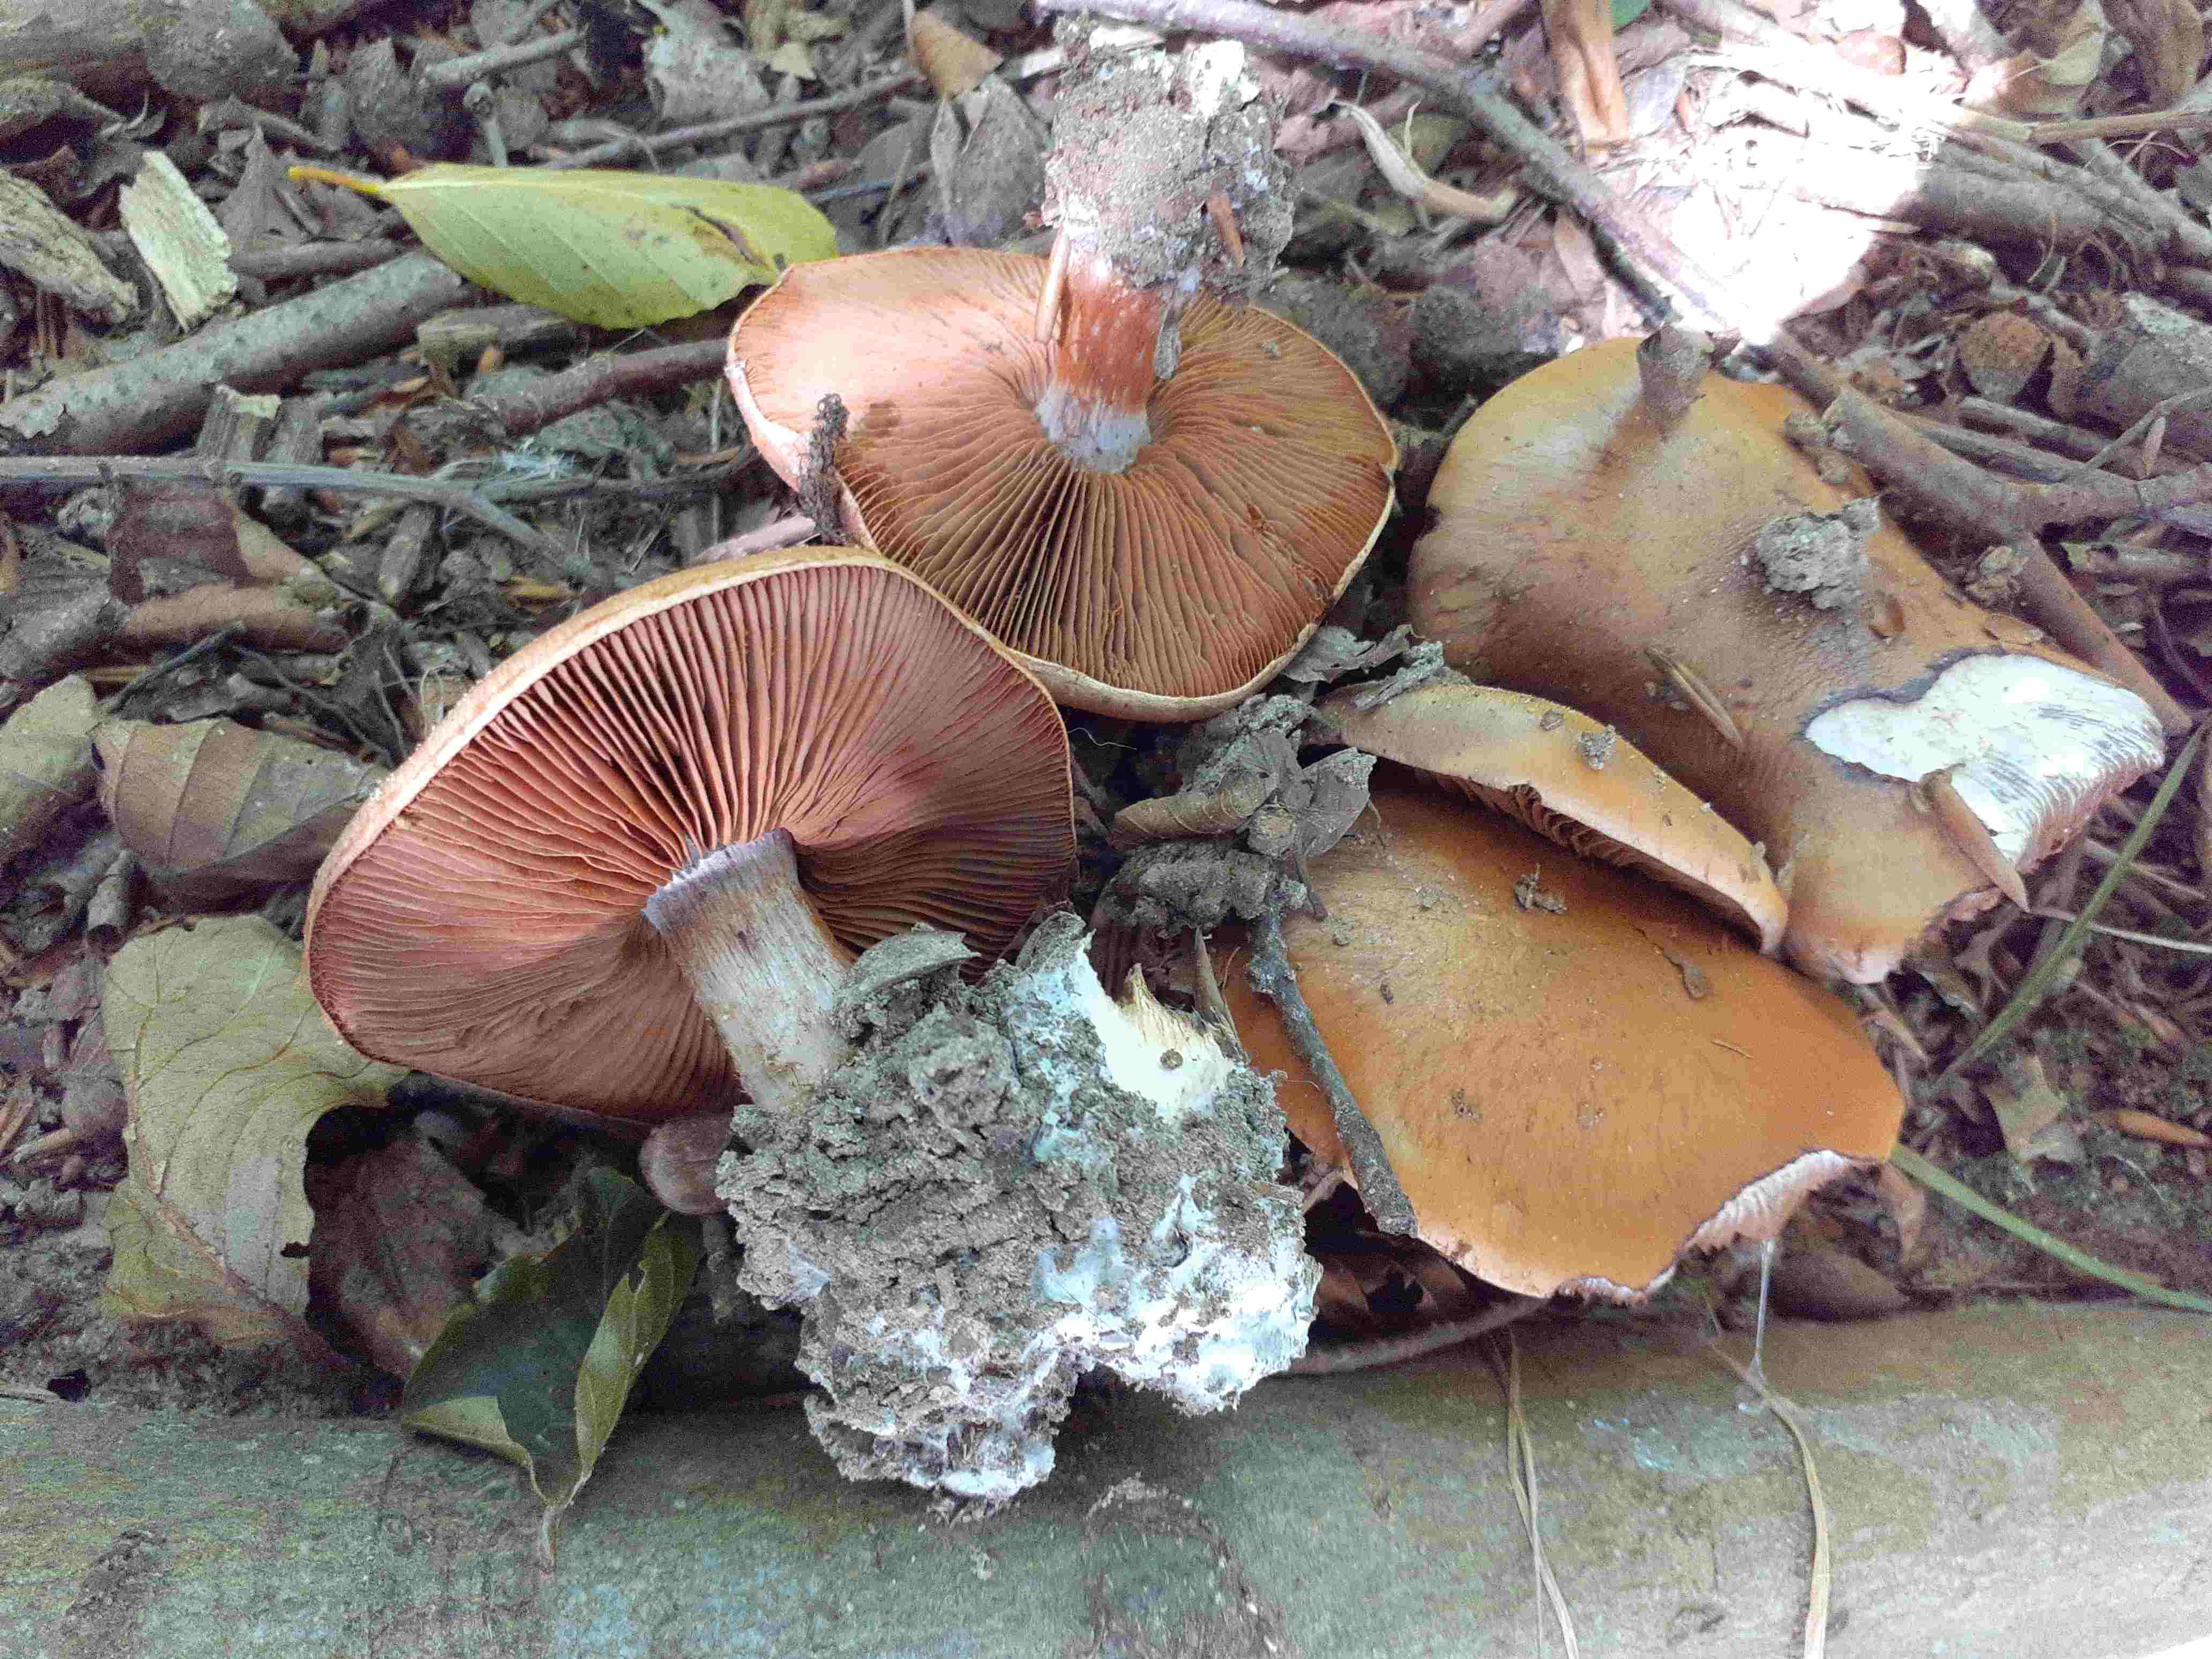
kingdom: Fungi
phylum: Basidiomycota
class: Agaricomycetes
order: Agaricales
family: Cortinariaceae
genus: Thaxterogaster
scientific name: Thaxterogaster subpurpurascens
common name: mørkblånende slørhat
